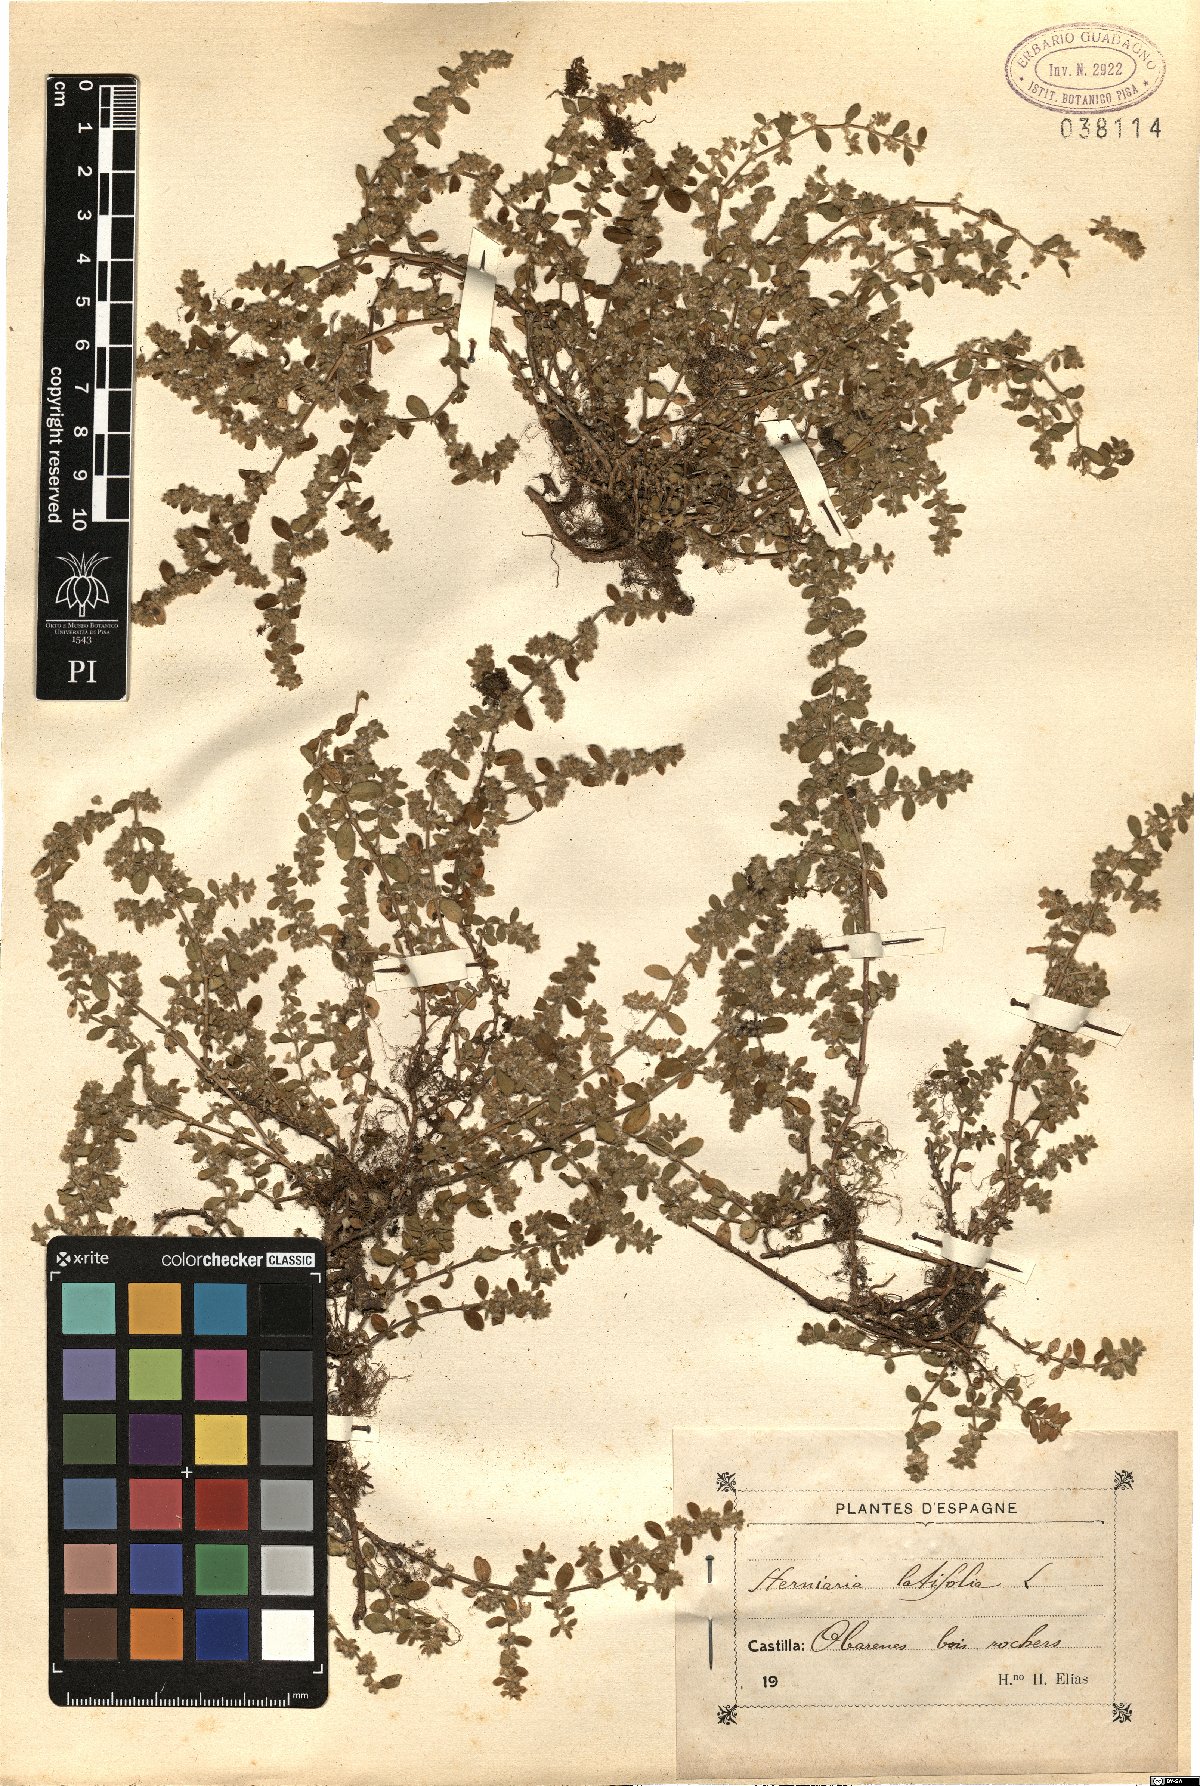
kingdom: Plantae
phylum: Tracheophyta
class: Magnoliopsida
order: Caryophyllales
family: Caryophyllaceae
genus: Herniaria
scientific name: Herniaria latifolia
